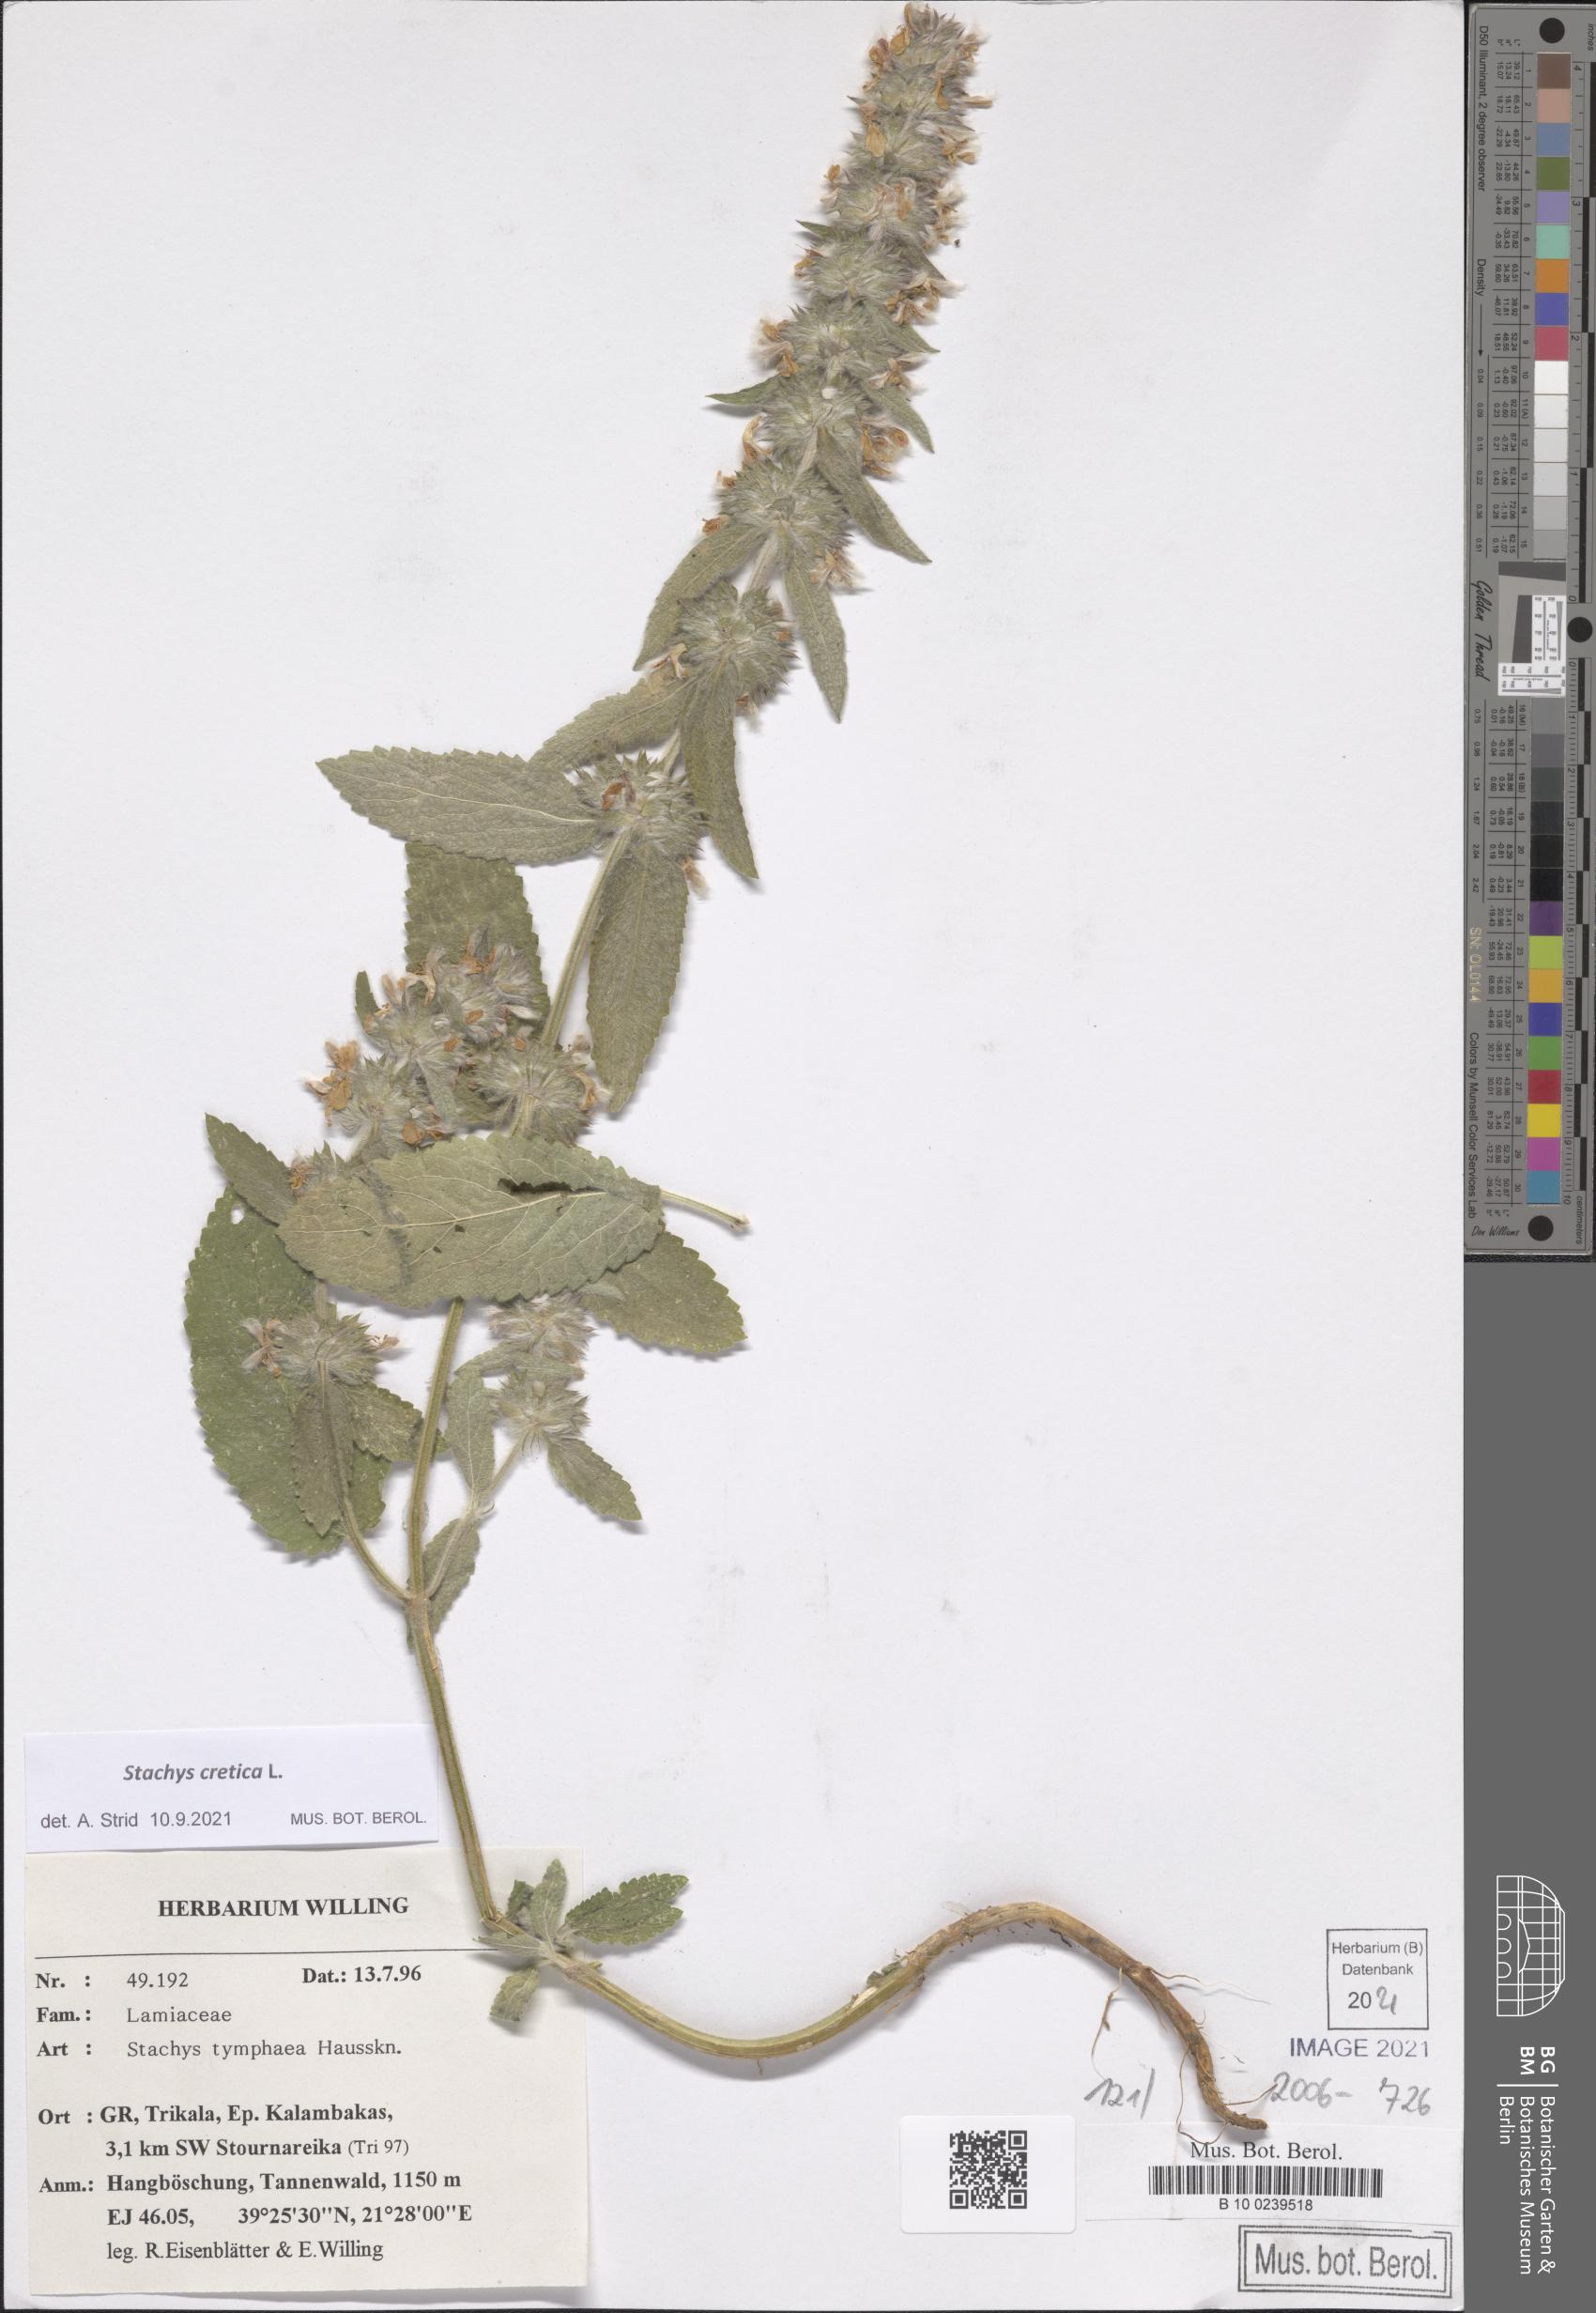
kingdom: Plantae
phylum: Tracheophyta
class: Magnoliopsida
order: Lamiales
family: Lamiaceae
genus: Stachys
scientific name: Stachys cretica
